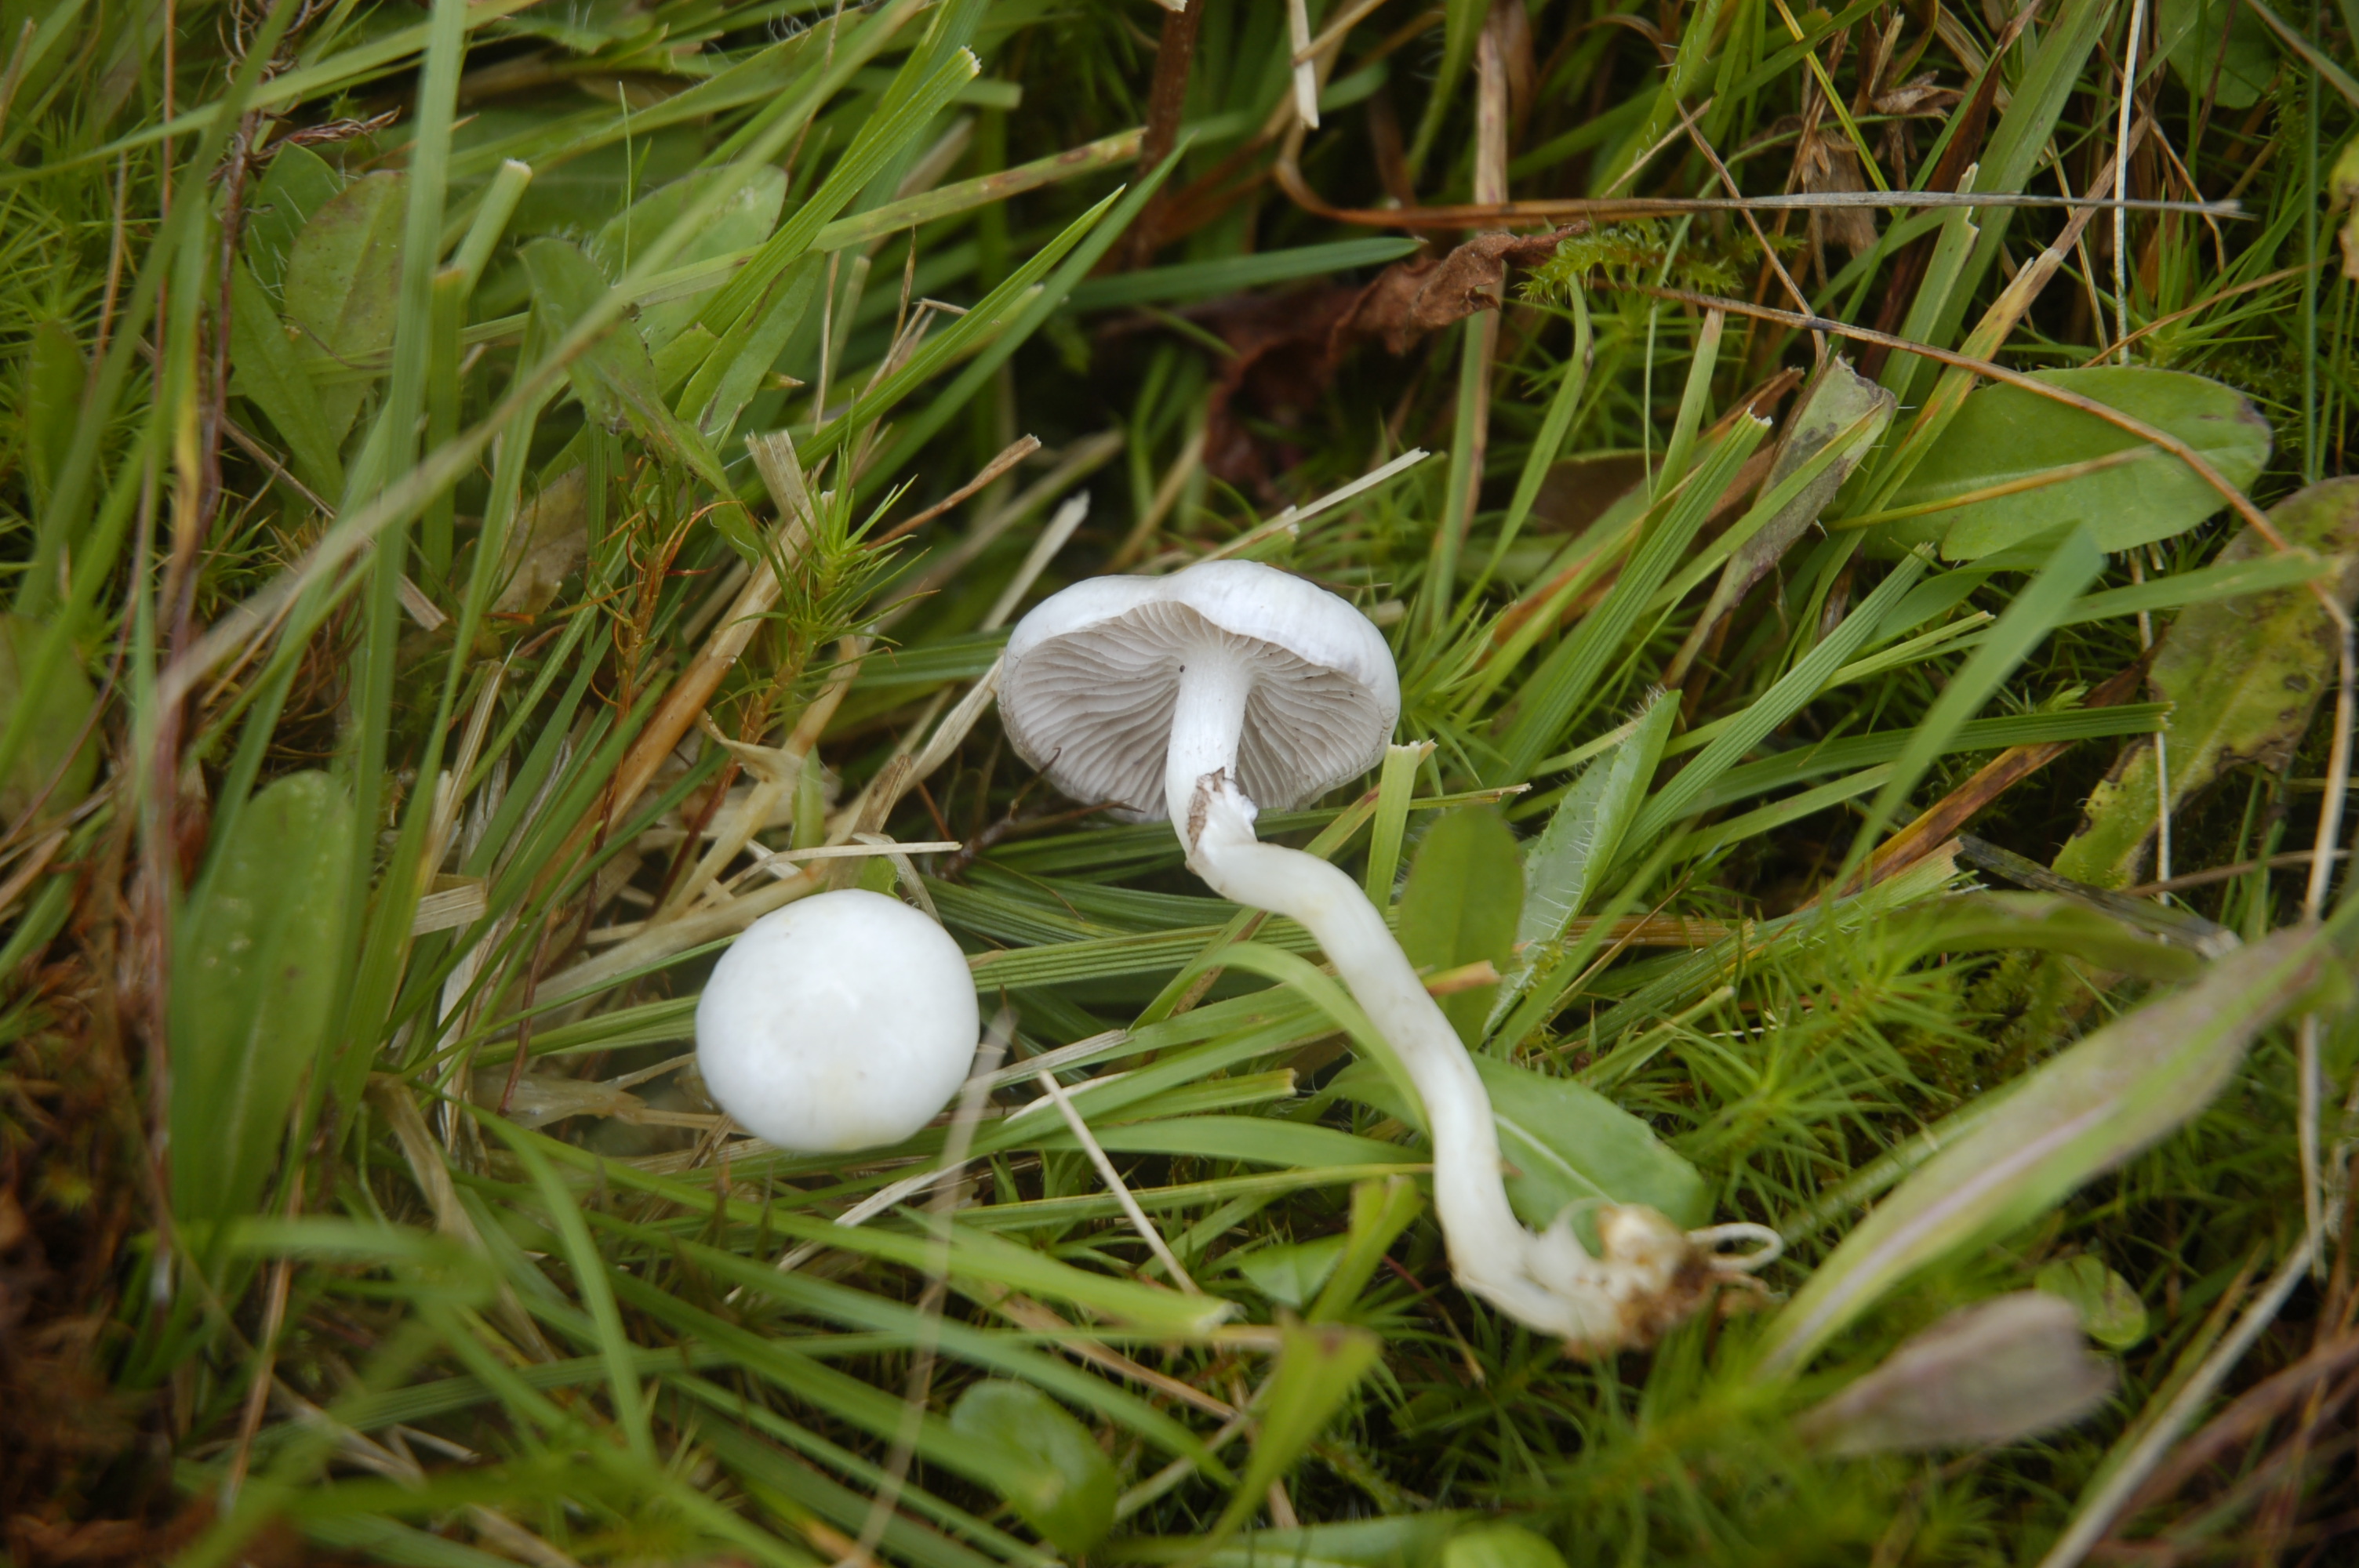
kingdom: Fungi
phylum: Basidiomycota
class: Agaricomycetes
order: Agaricales
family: Strophariaceae
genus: Stropharia
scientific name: Stropharia albonitens
